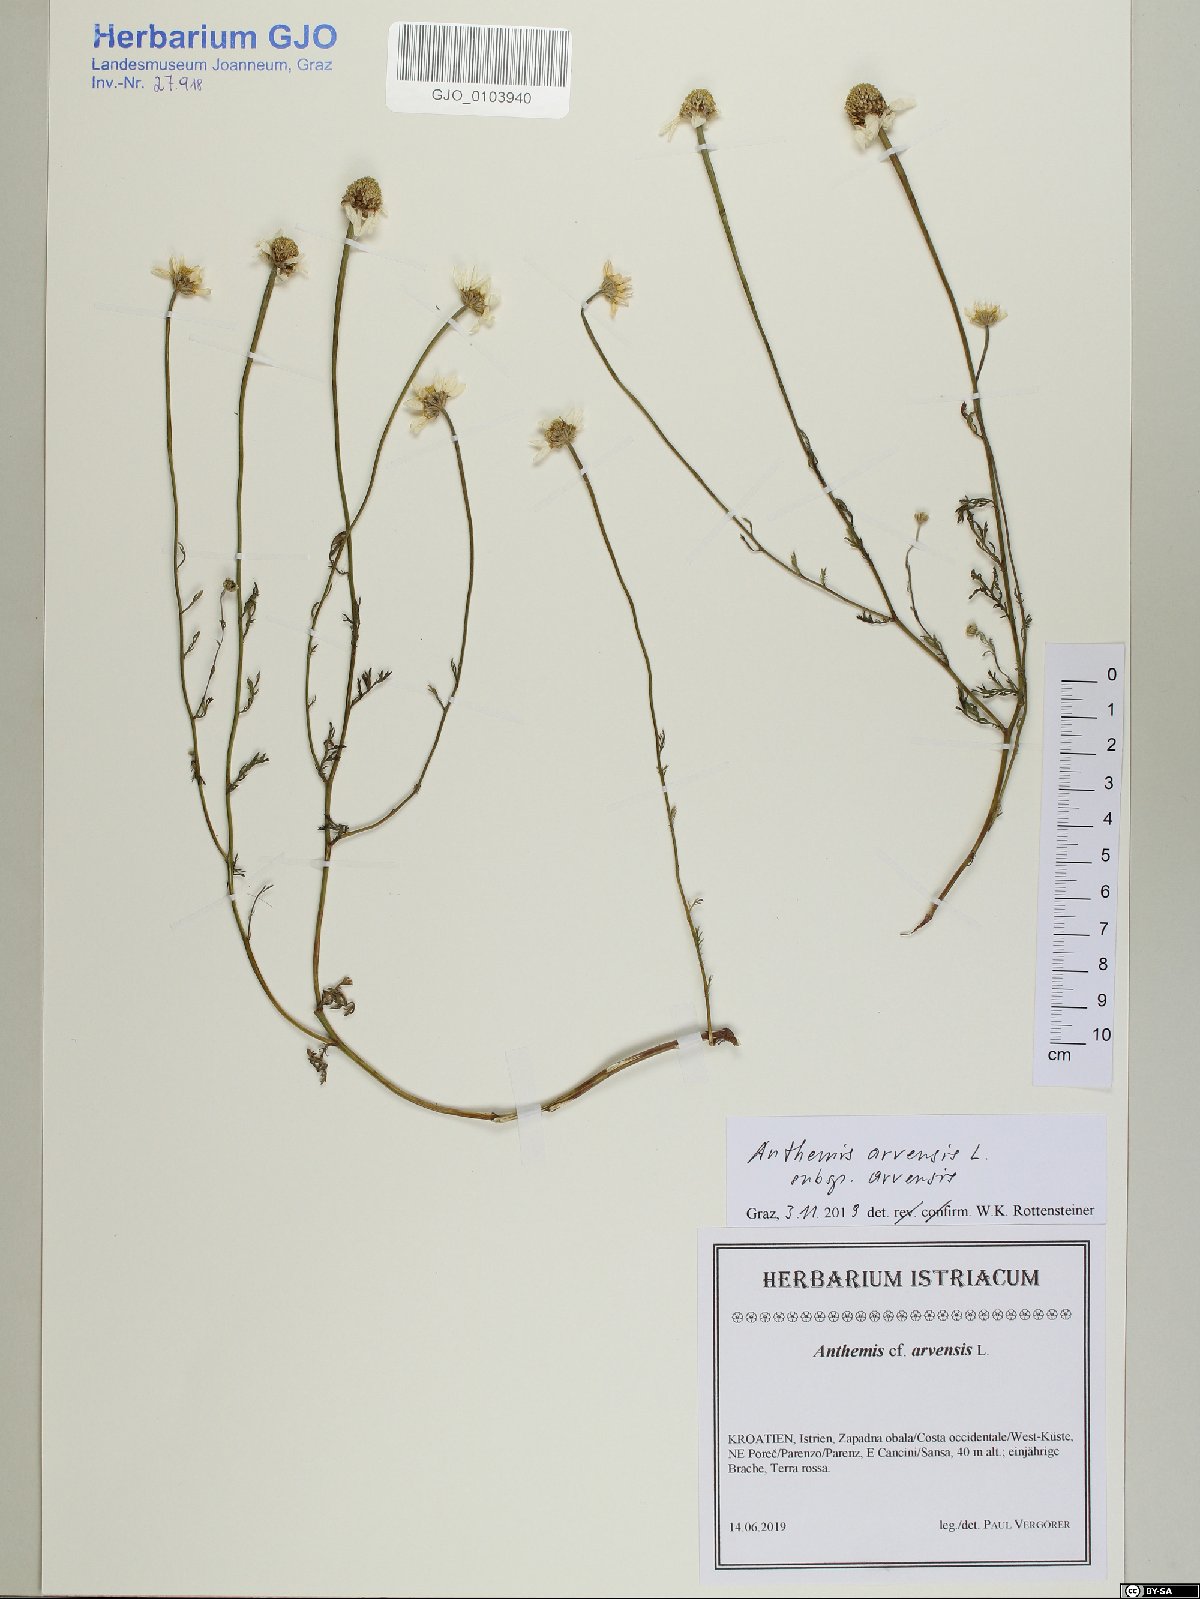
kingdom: Plantae
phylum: Tracheophyta
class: Magnoliopsida
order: Asterales
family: Asteraceae
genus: Anthemis
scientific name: Anthemis arvensis
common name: Corn chamomile
